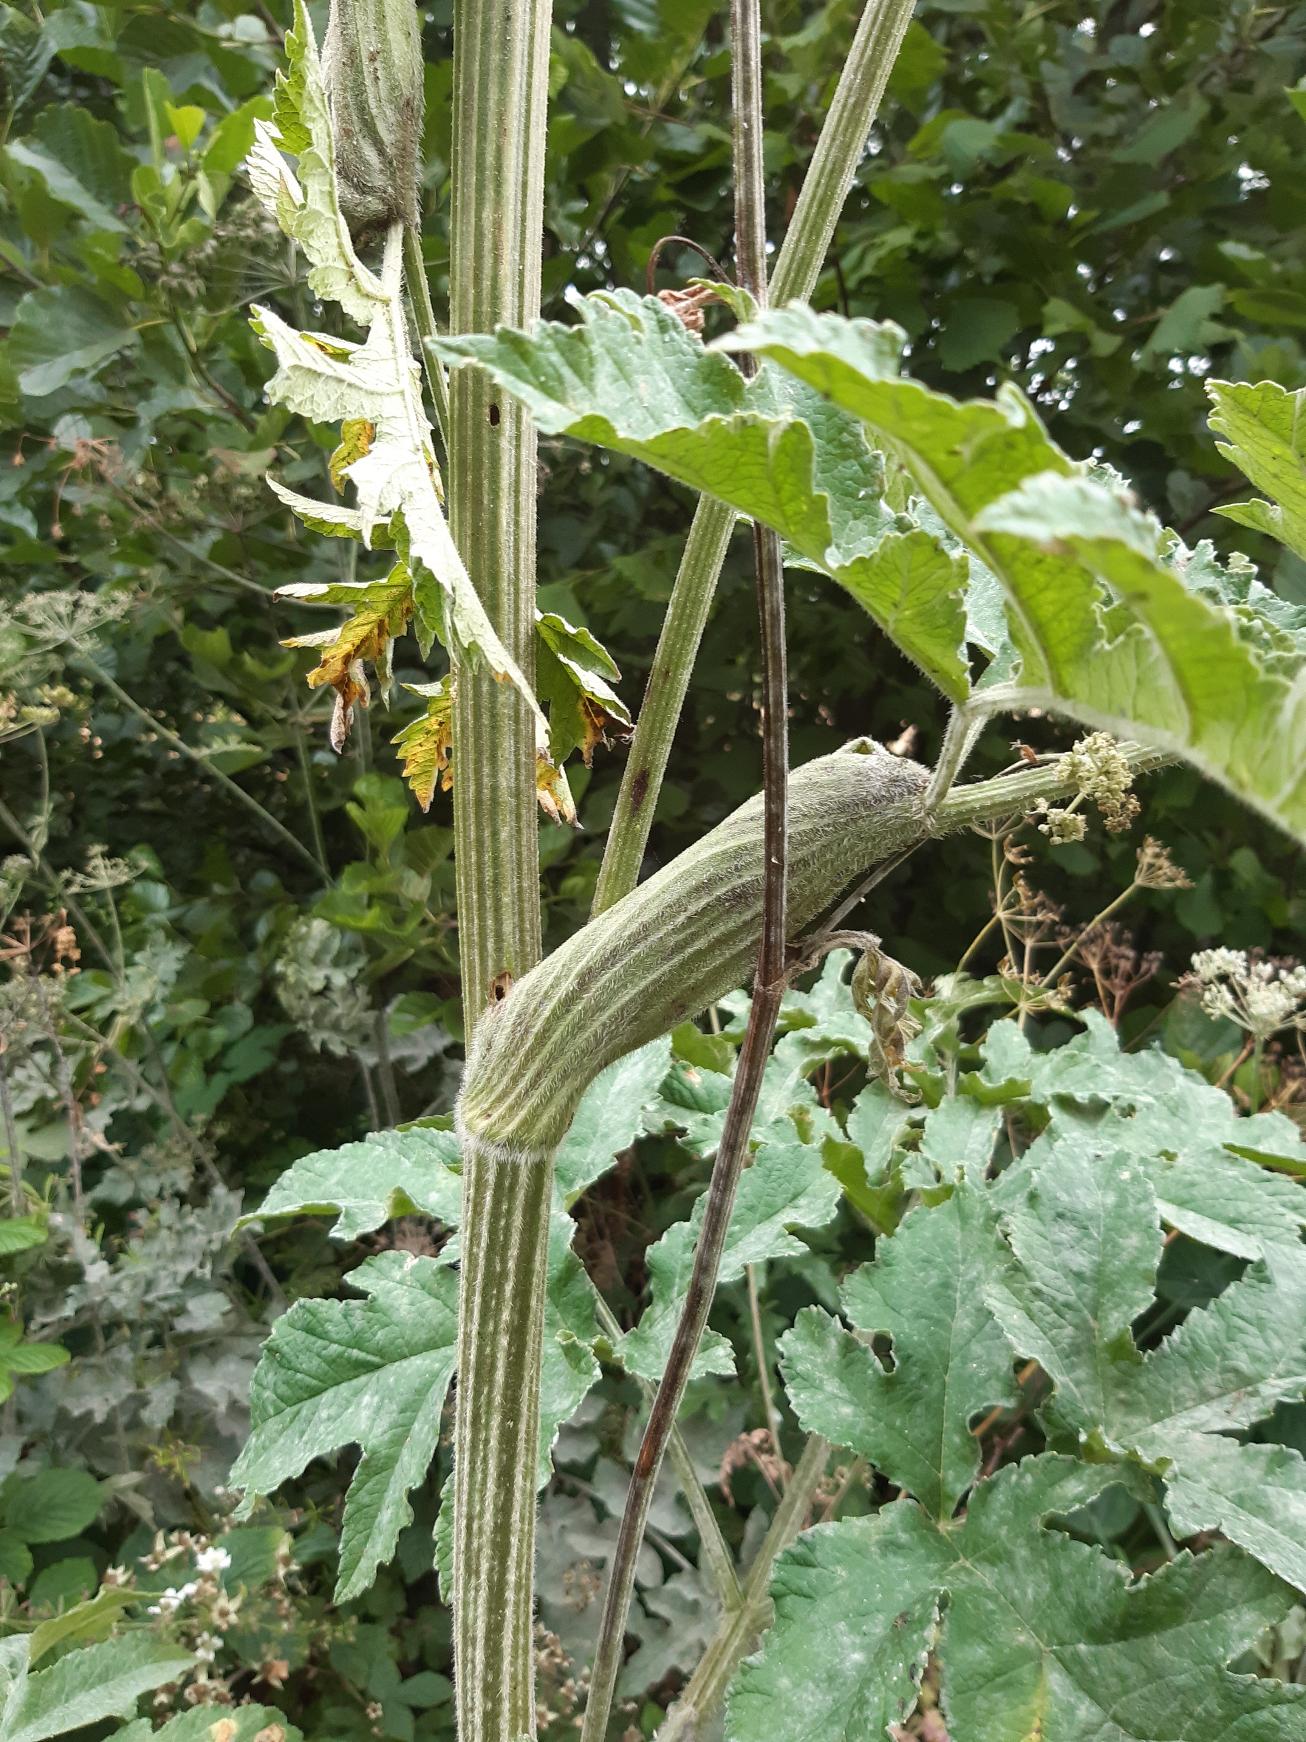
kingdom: Plantae
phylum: Tracheophyta
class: Magnoliopsida
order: Apiales
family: Apiaceae
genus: Heracleum
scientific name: Heracleum sphondylium
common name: Almindelig bjørneklo
